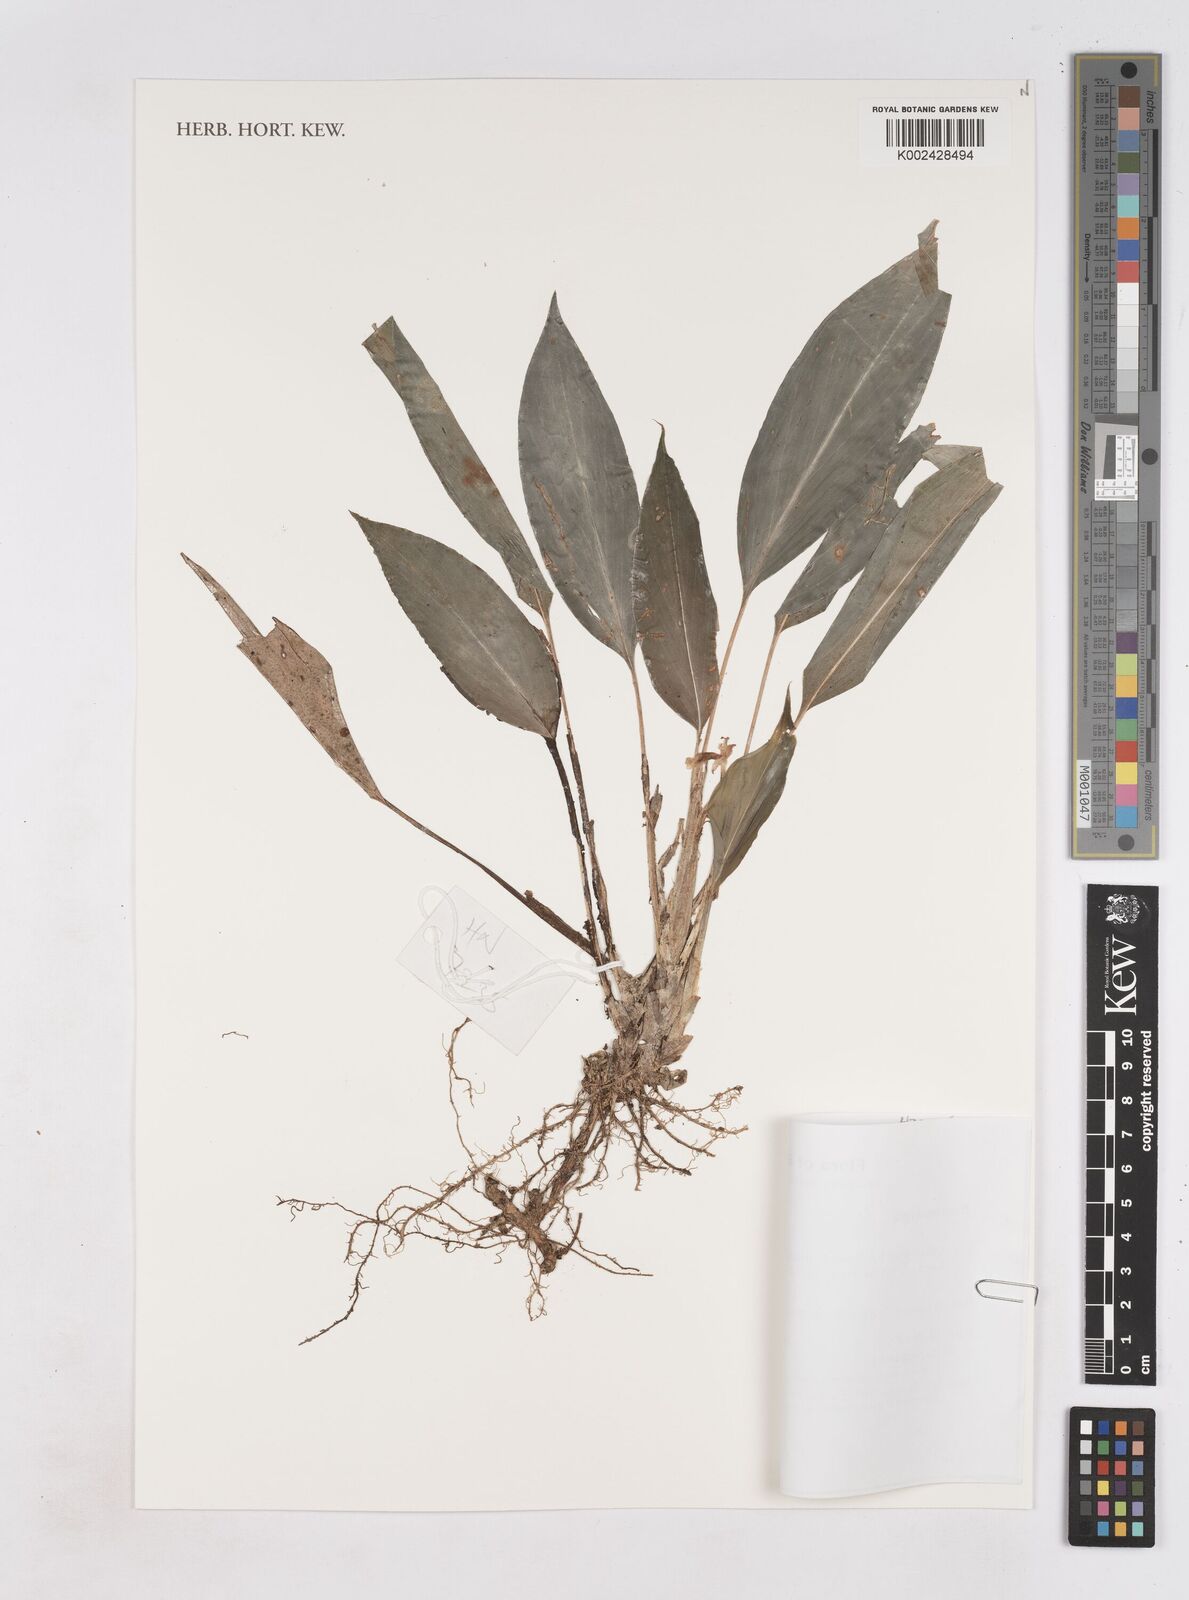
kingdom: Plantae
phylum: Tracheophyta
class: Liliopsida
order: Zingiberales
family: Zingiberaceae
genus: Boesenbergia
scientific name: Boesenbergia
